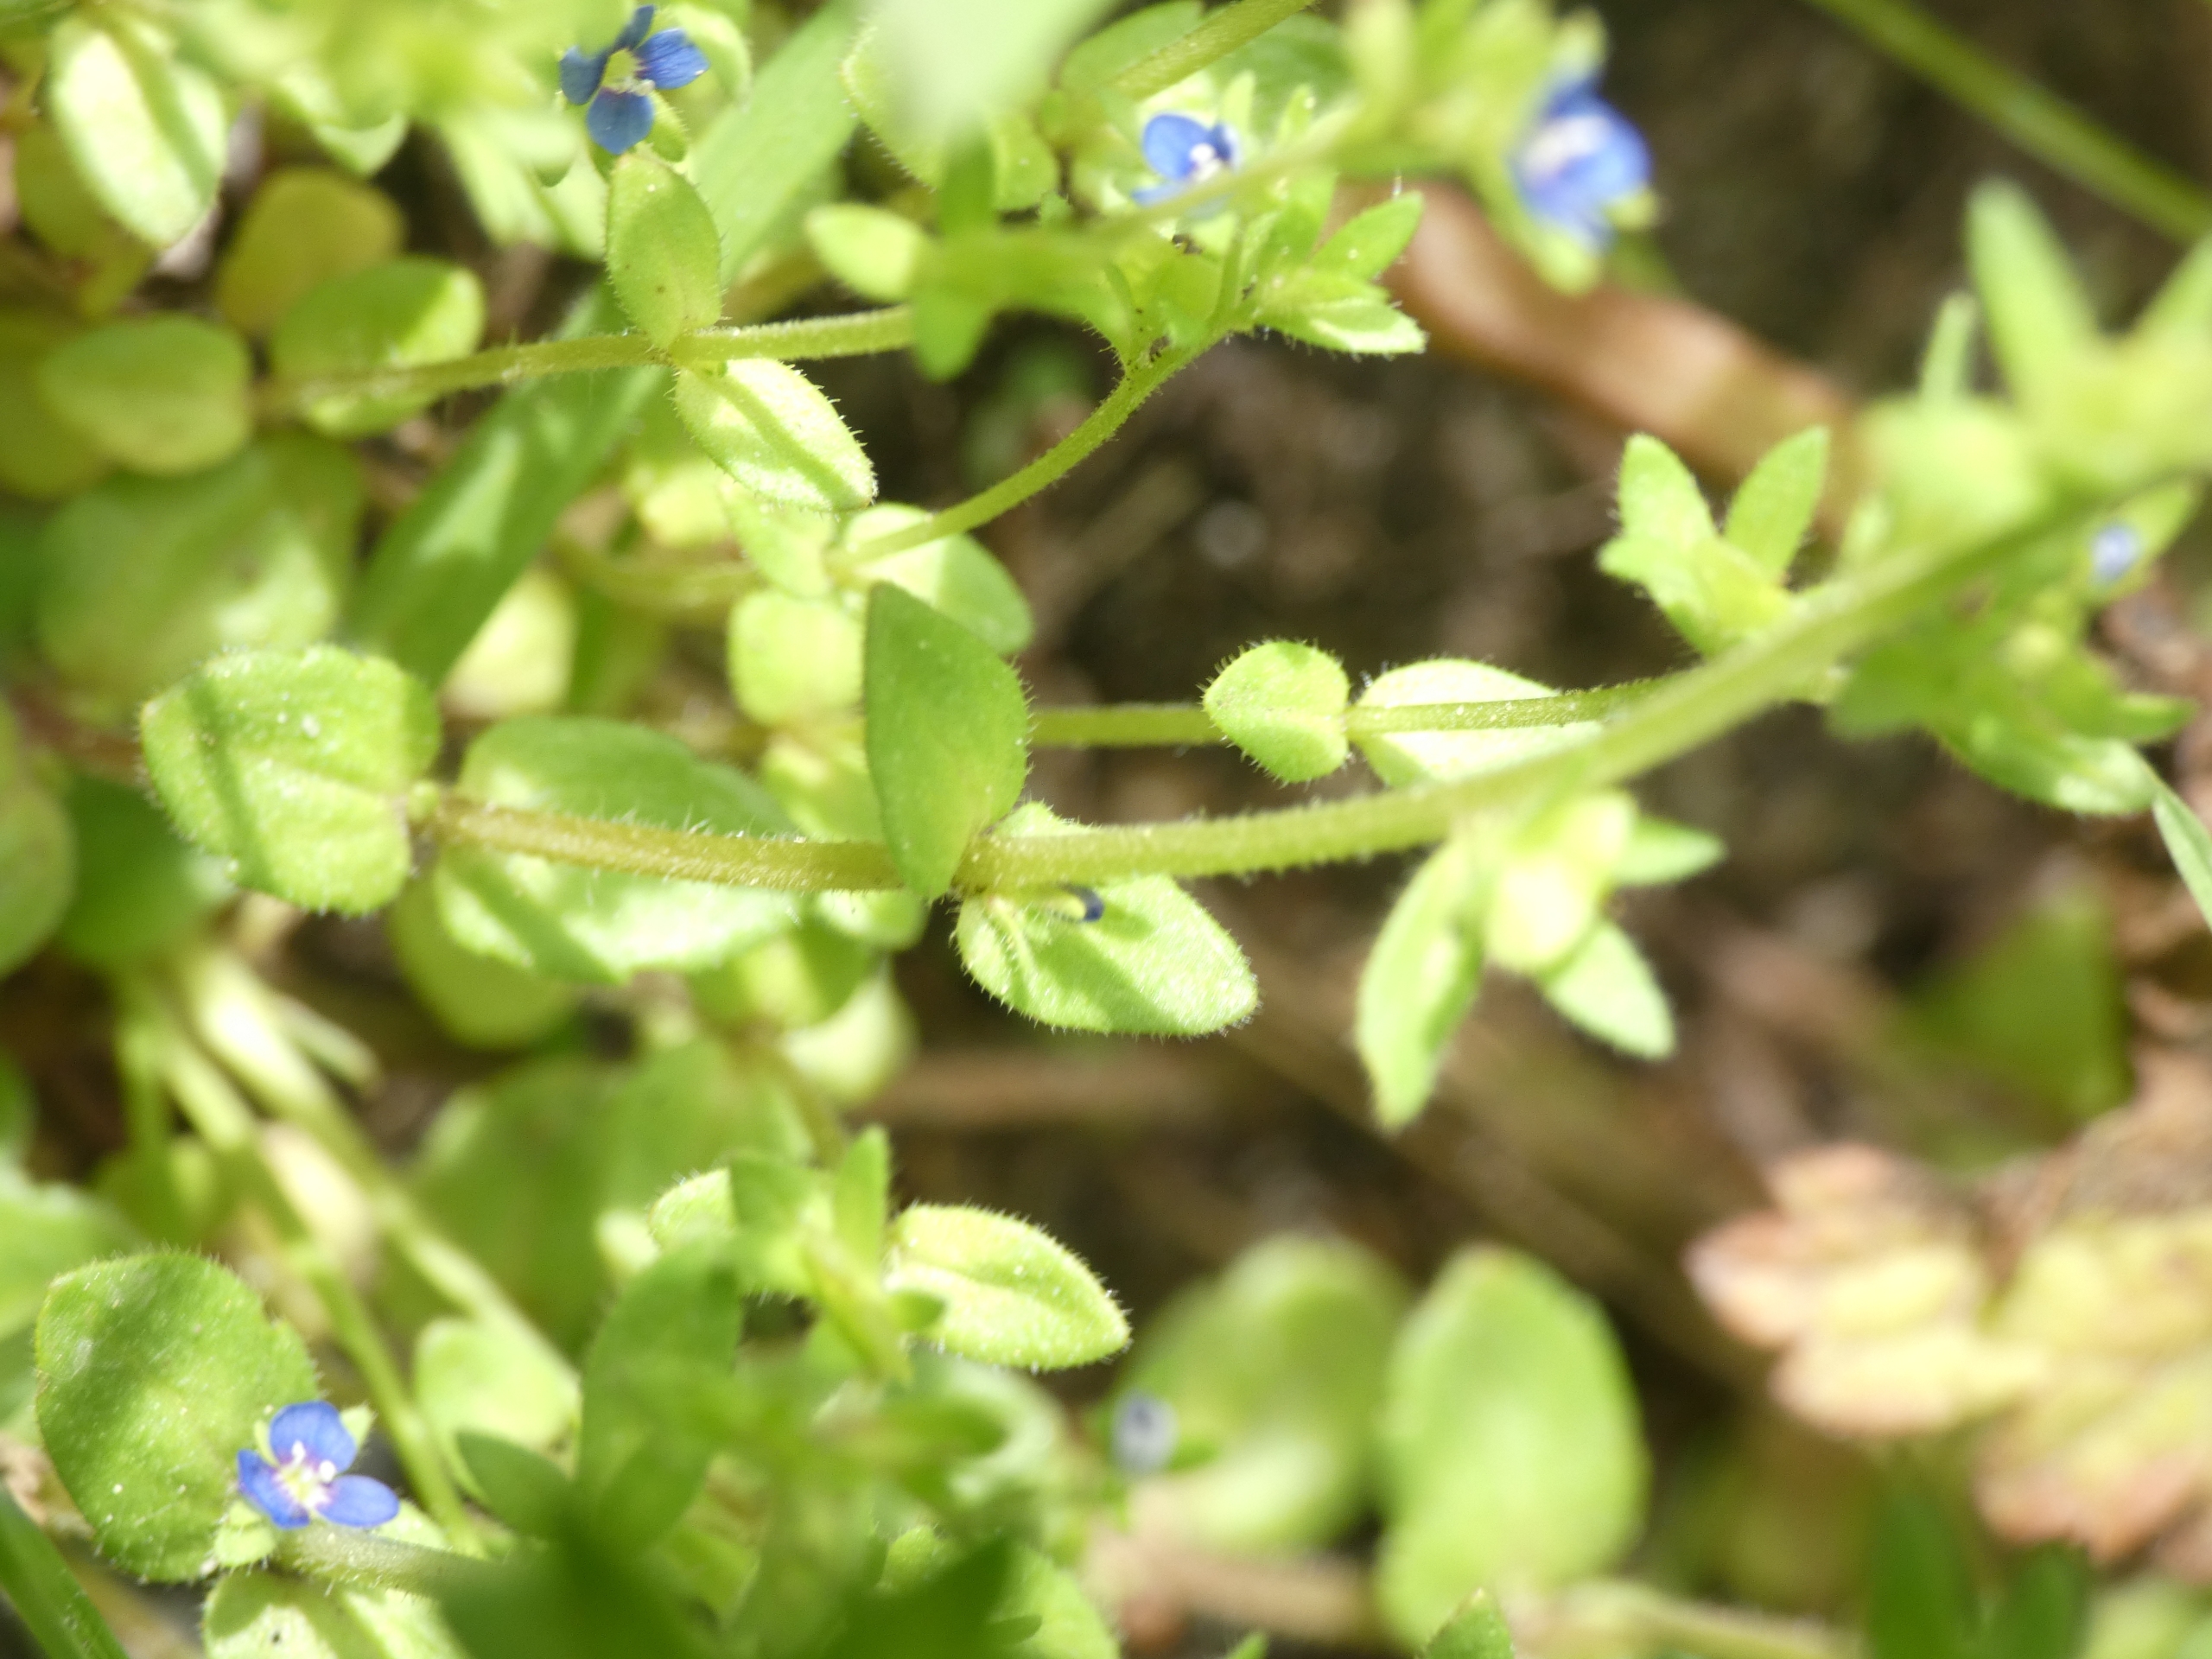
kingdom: Plantae
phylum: Tracheophyta
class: Magnoliopsida
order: Lamiales
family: Plantaginaceae
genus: Veronica
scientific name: Veronica arvensis
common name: Mark-ærenpris
